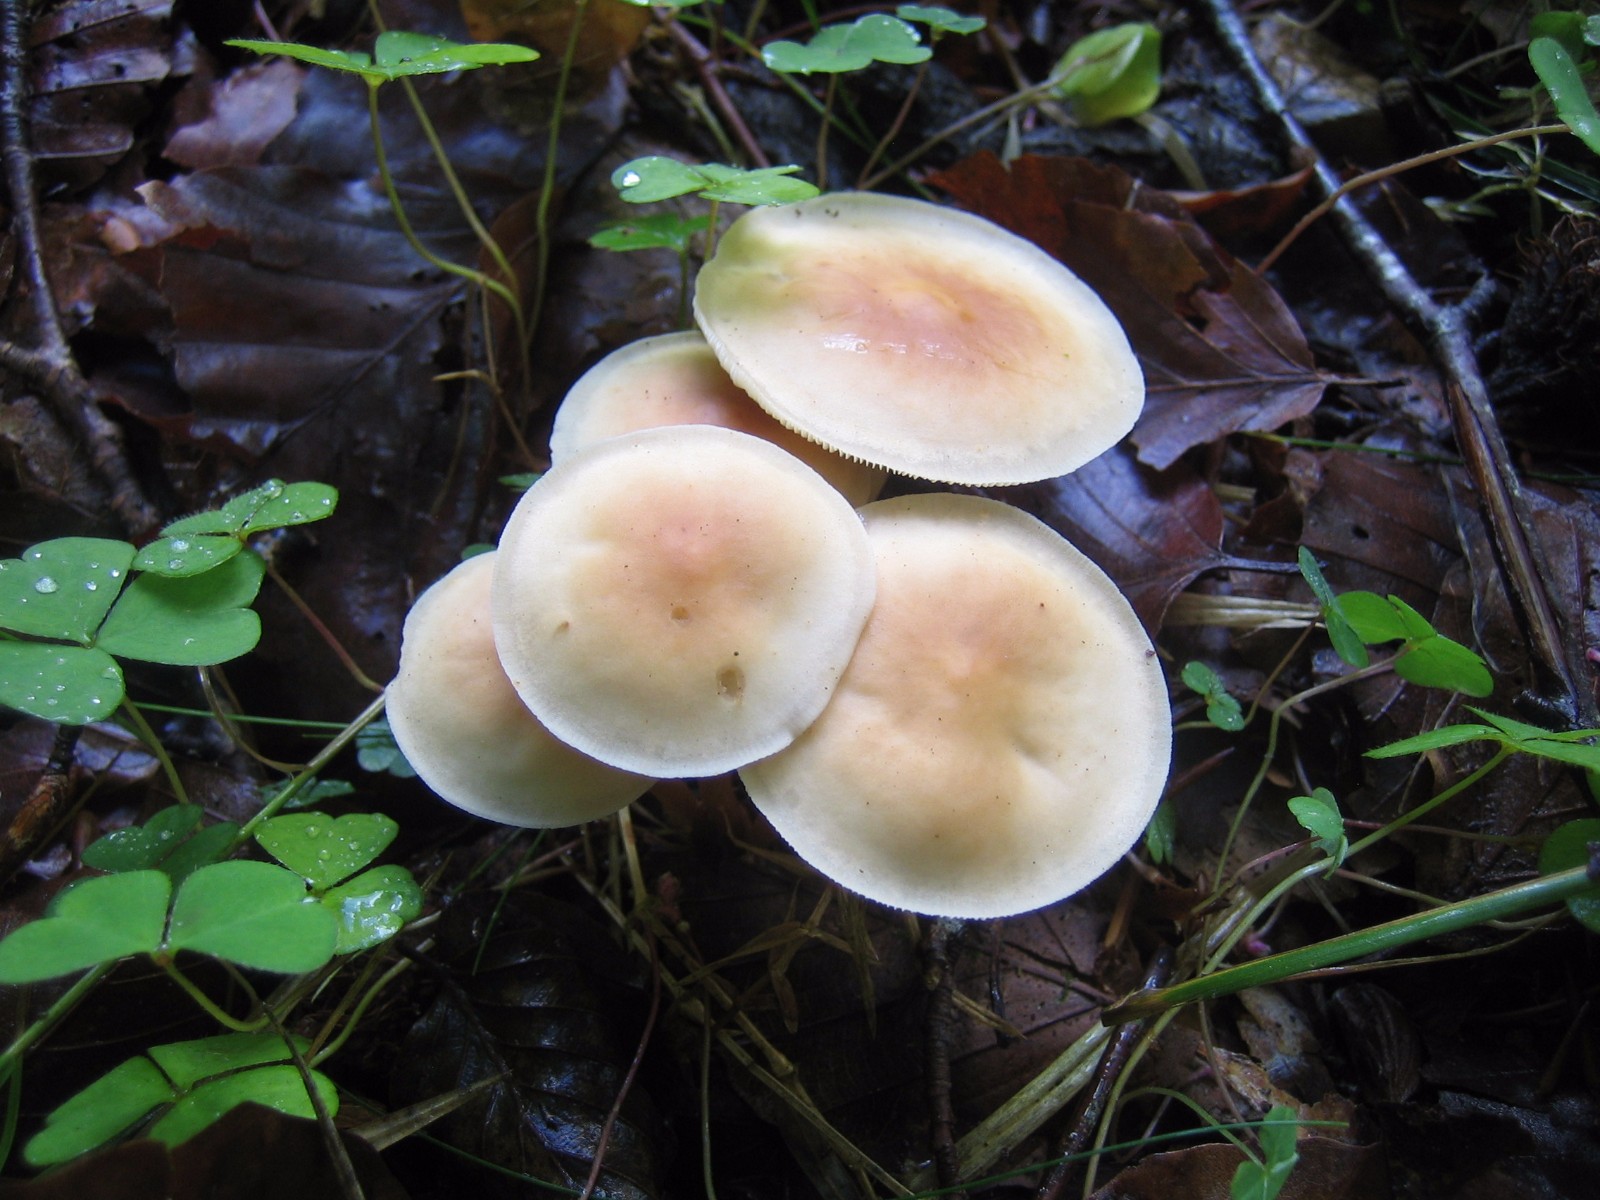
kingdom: Fungi
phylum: Basidiomycota
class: Agaricomycetes
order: Agaricales
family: Omphalotaceae
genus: Gymnopus
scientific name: Gymnopus dryophilus
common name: løv-fladhat
